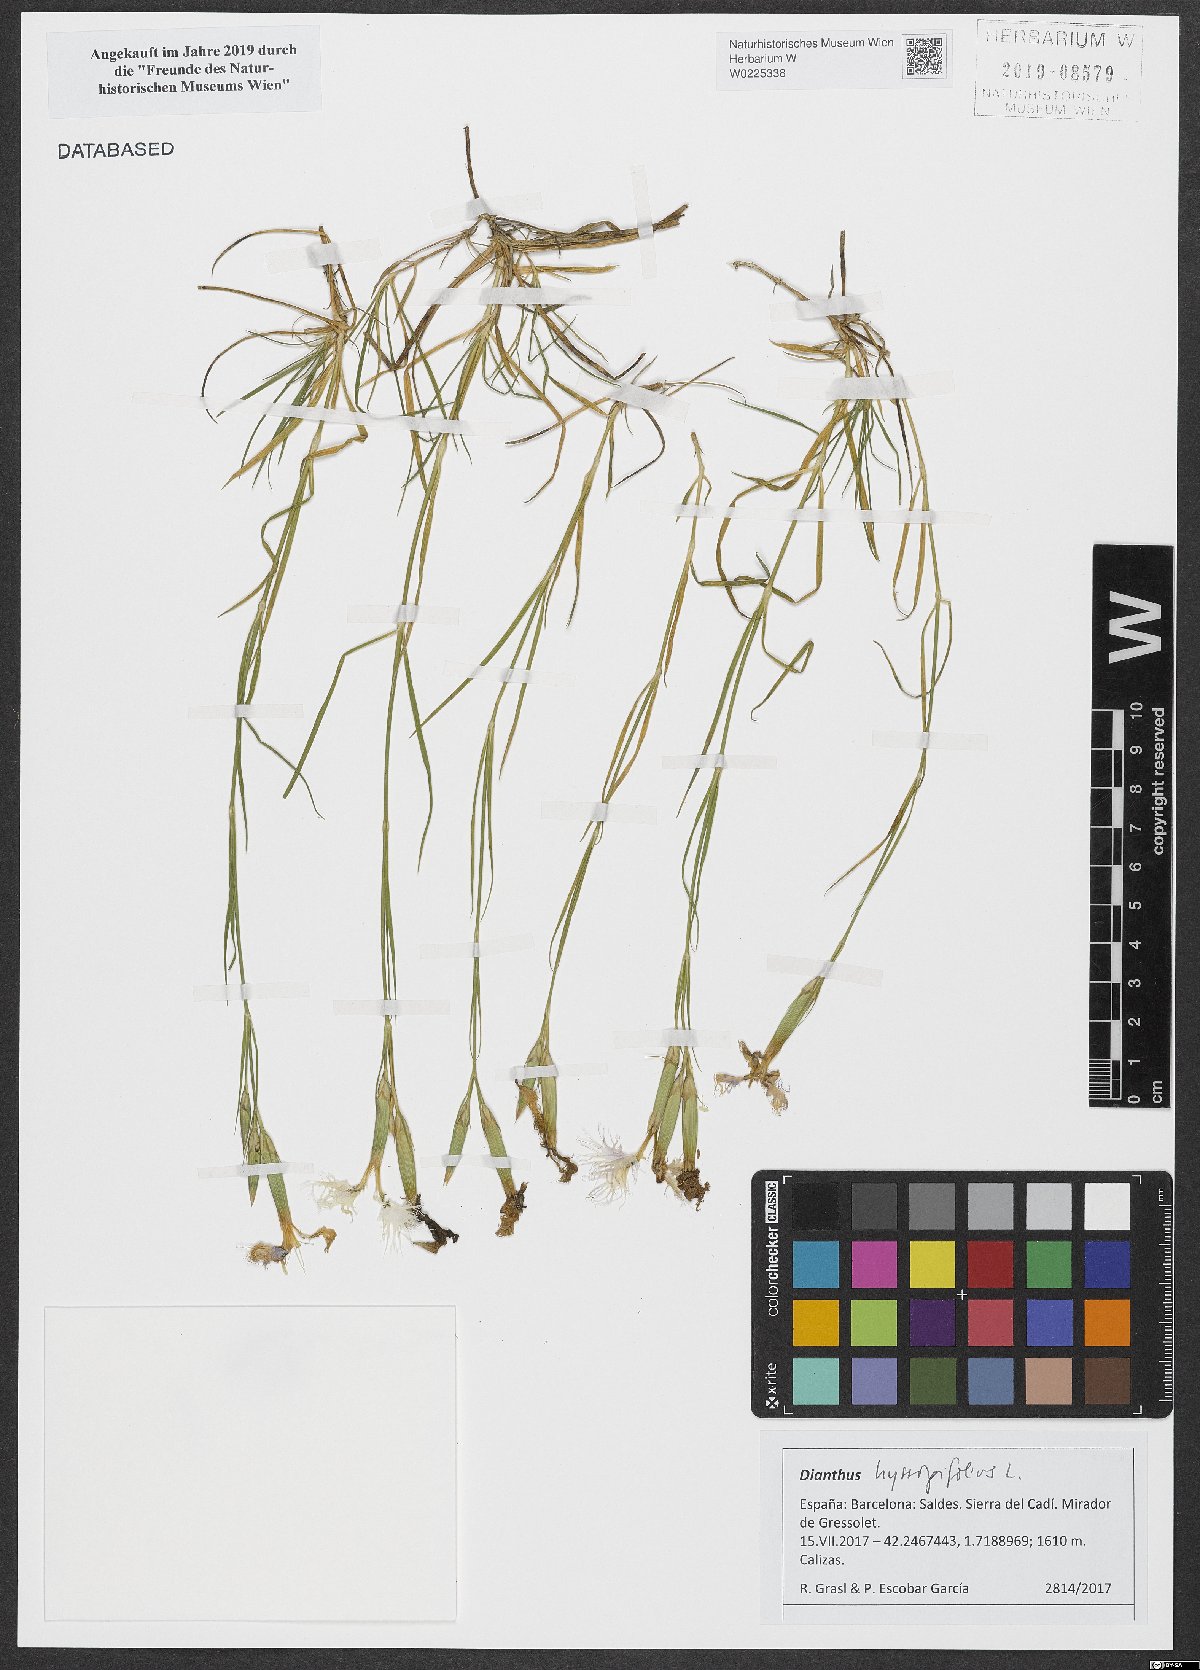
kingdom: Plantae
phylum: Tracheophyta
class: Magnoliopsida
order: Caryophyllales
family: Caryophyllaceae
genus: Dianthus
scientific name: Dianthus hyssopifolius
